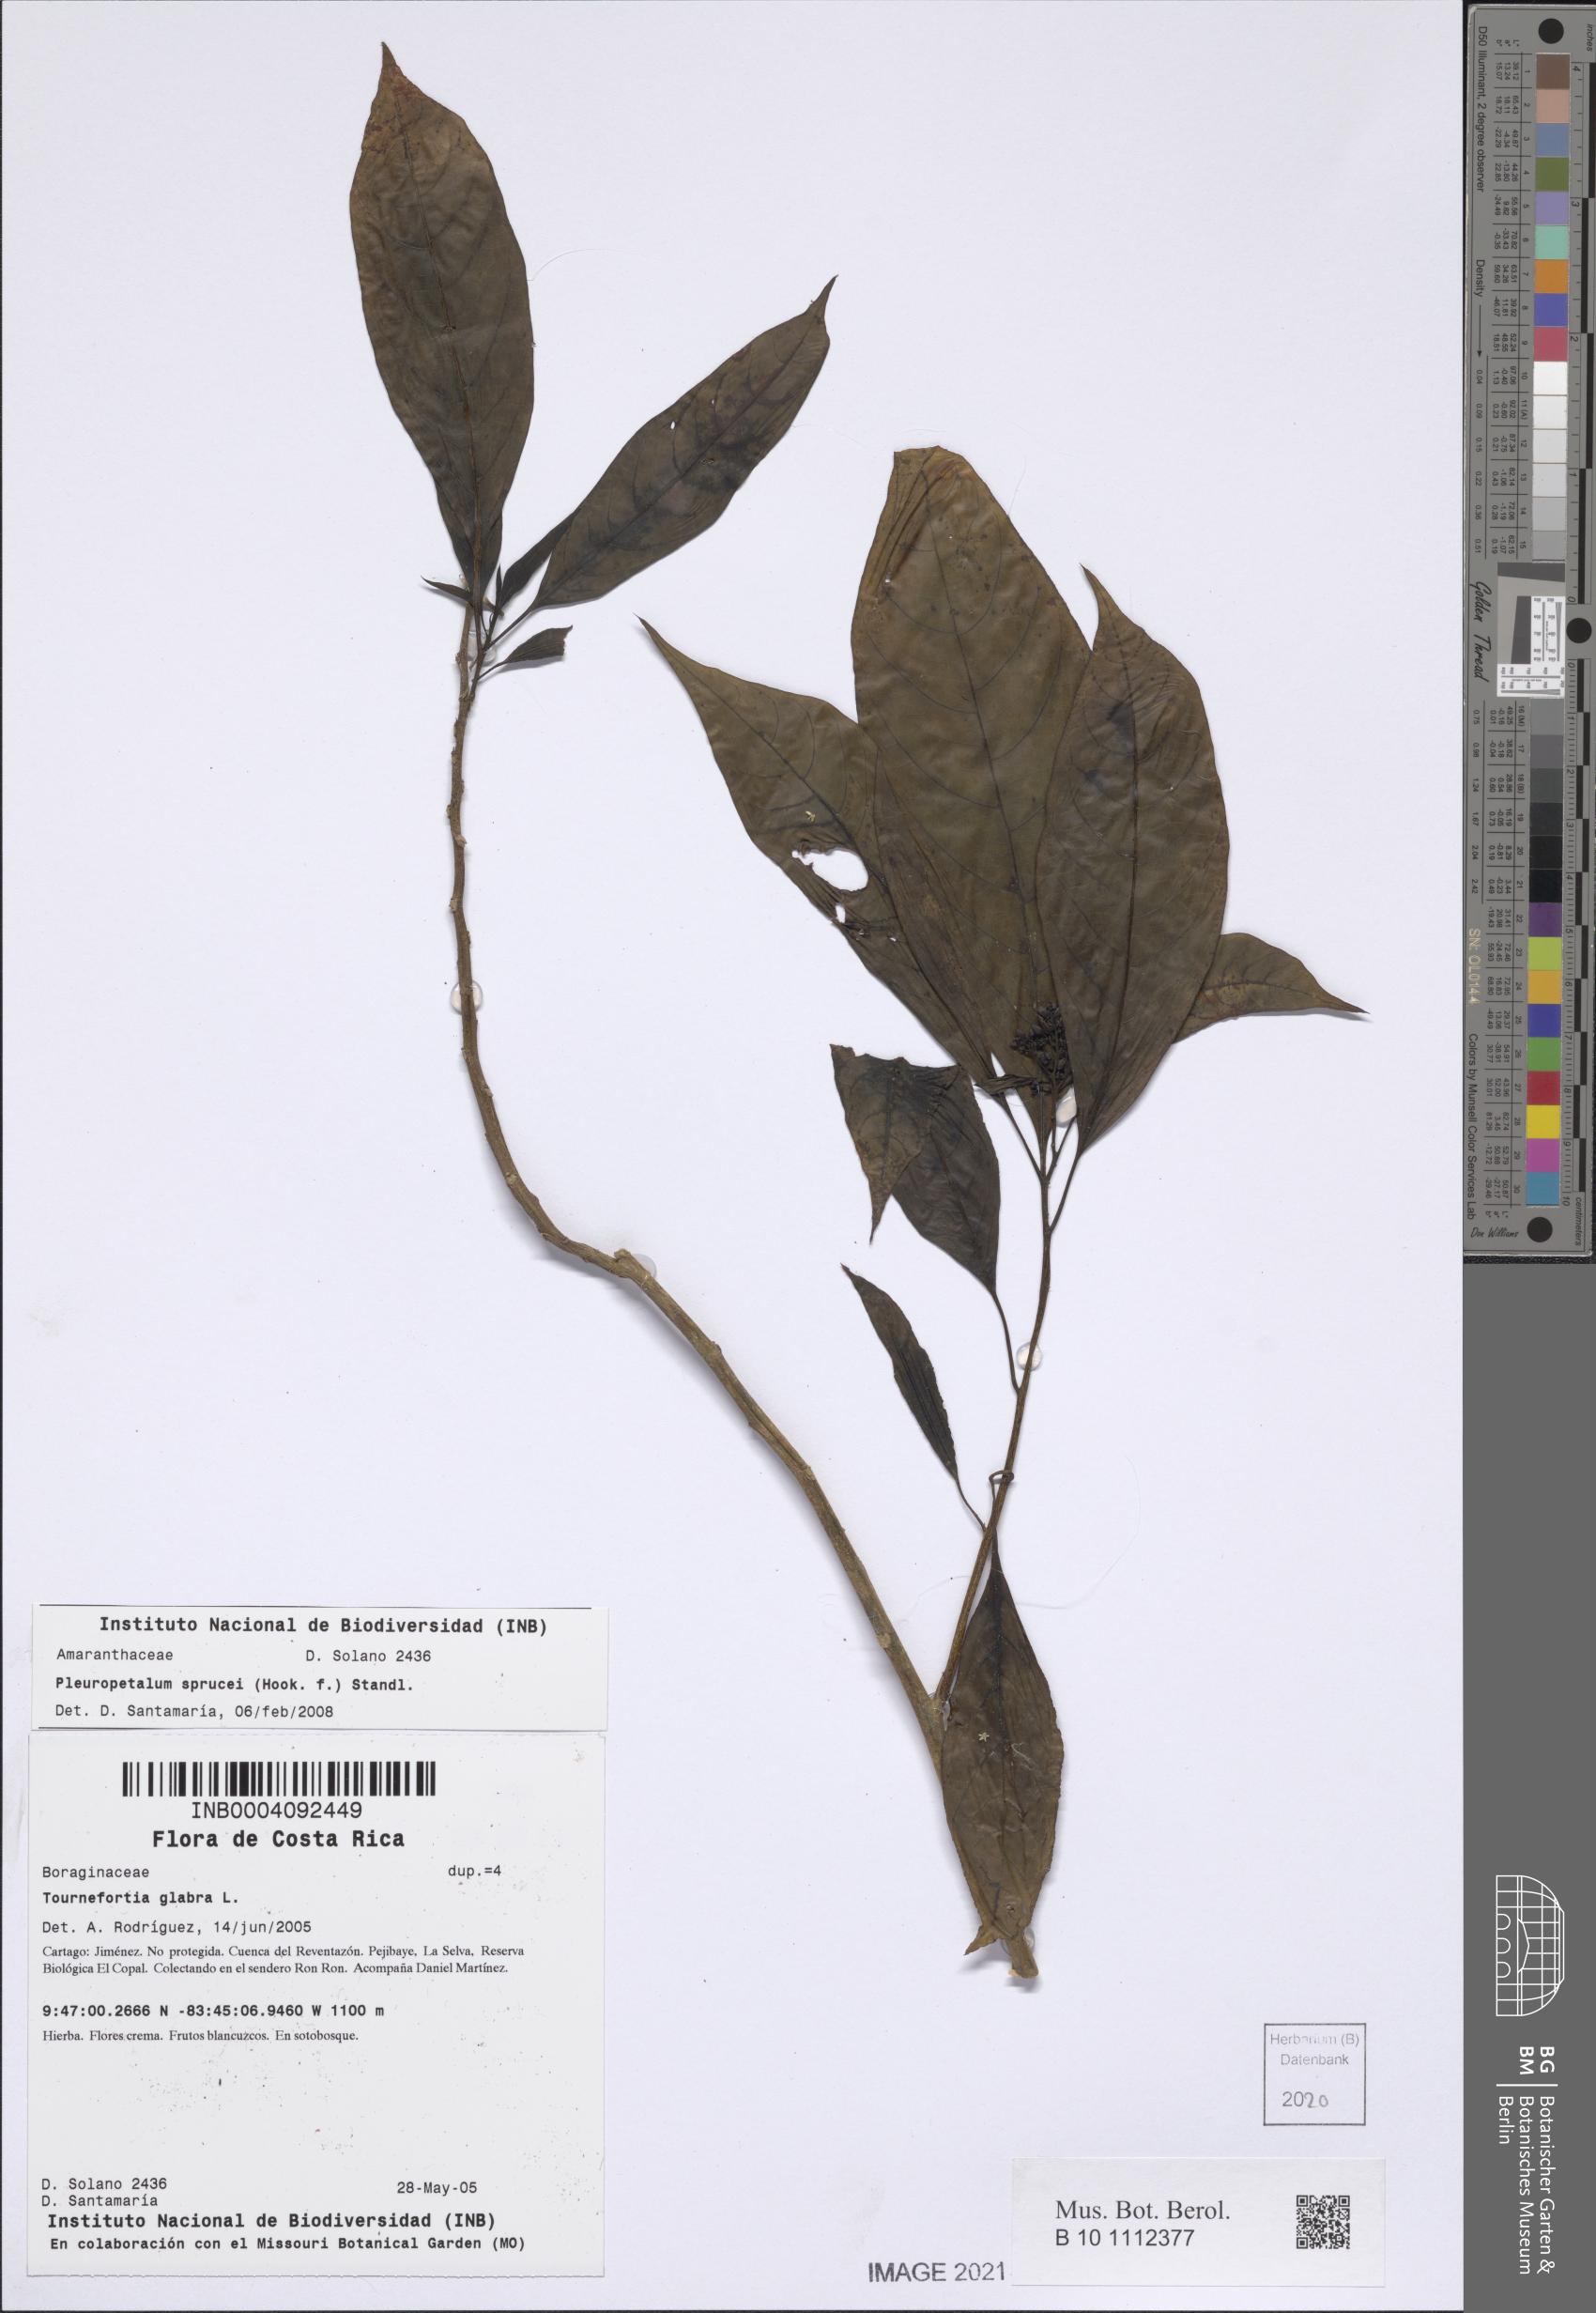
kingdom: Plantae
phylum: Tracheophyta
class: Magnoliopsida
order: Caryophyllales
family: Amaranthaceae
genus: Pleuropetalum
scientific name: Pleuropetalum sprucei
